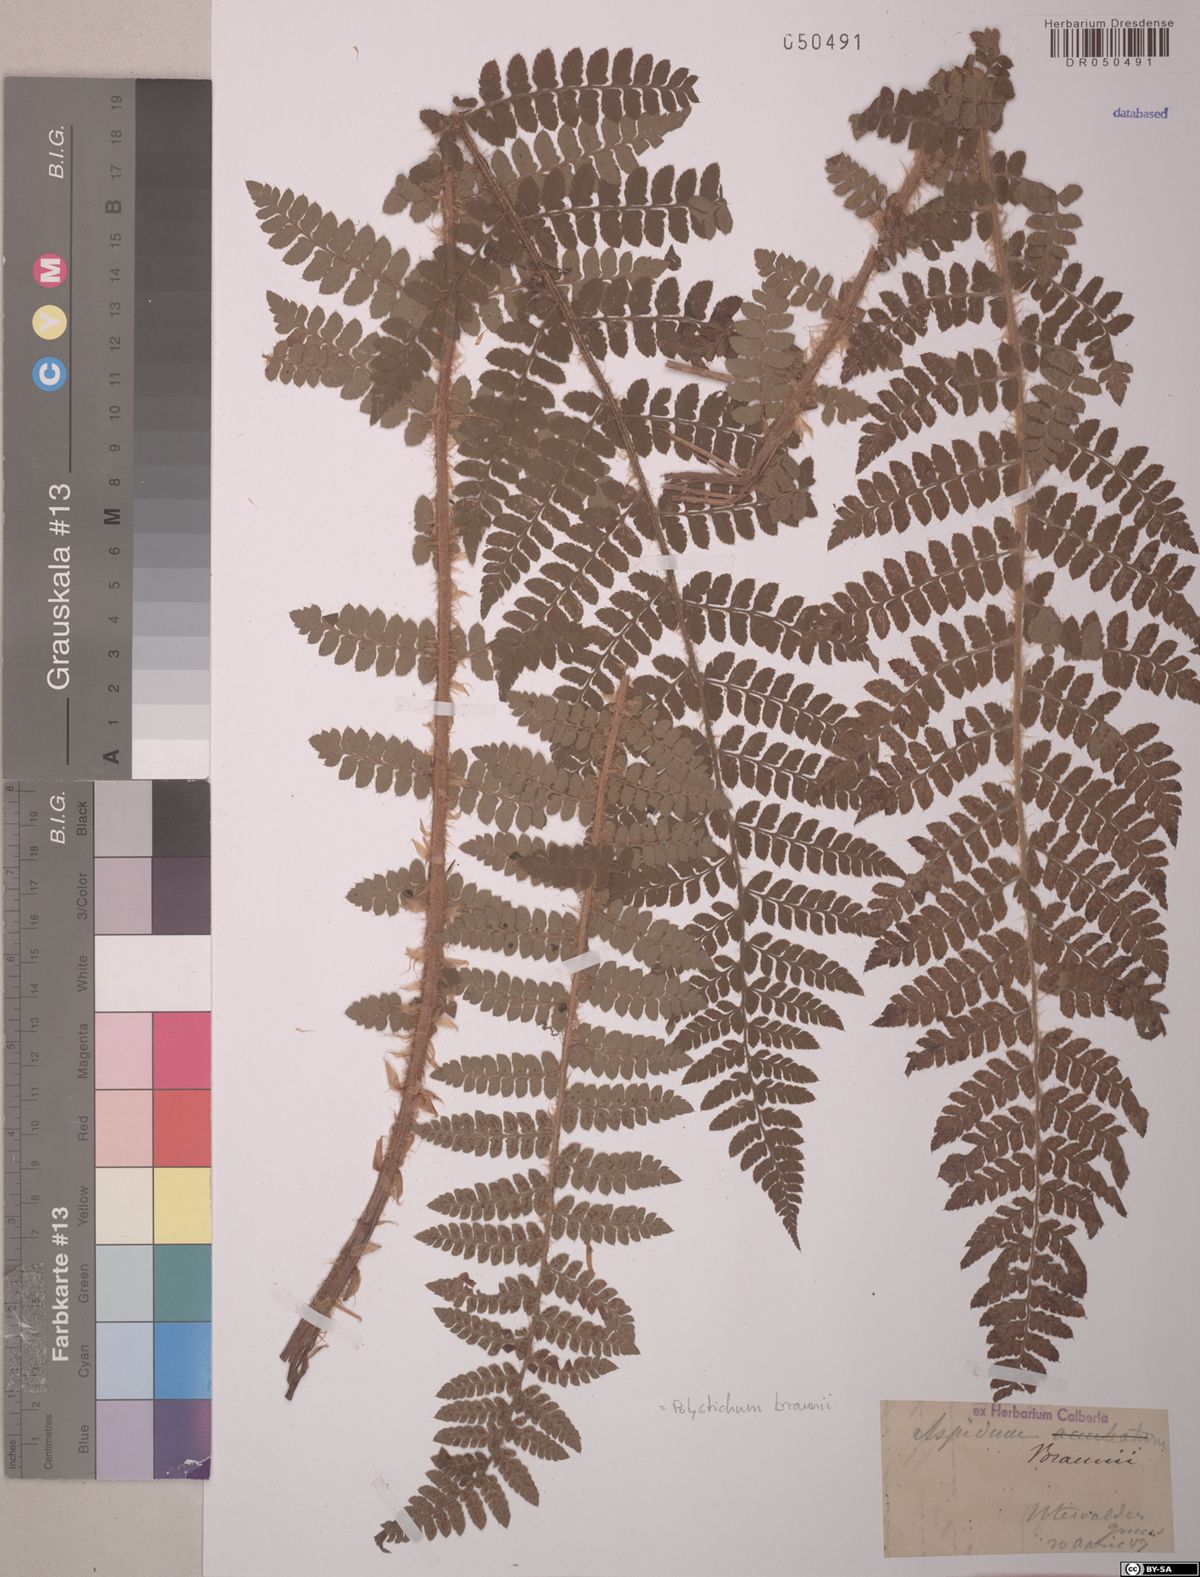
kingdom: Plantae
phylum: Tracheophyta
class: Polypodiopsida
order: Polypodiales
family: Dryopteridaceae
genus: Polystichum
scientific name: Polystichum braunii
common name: Braun's holly fern
